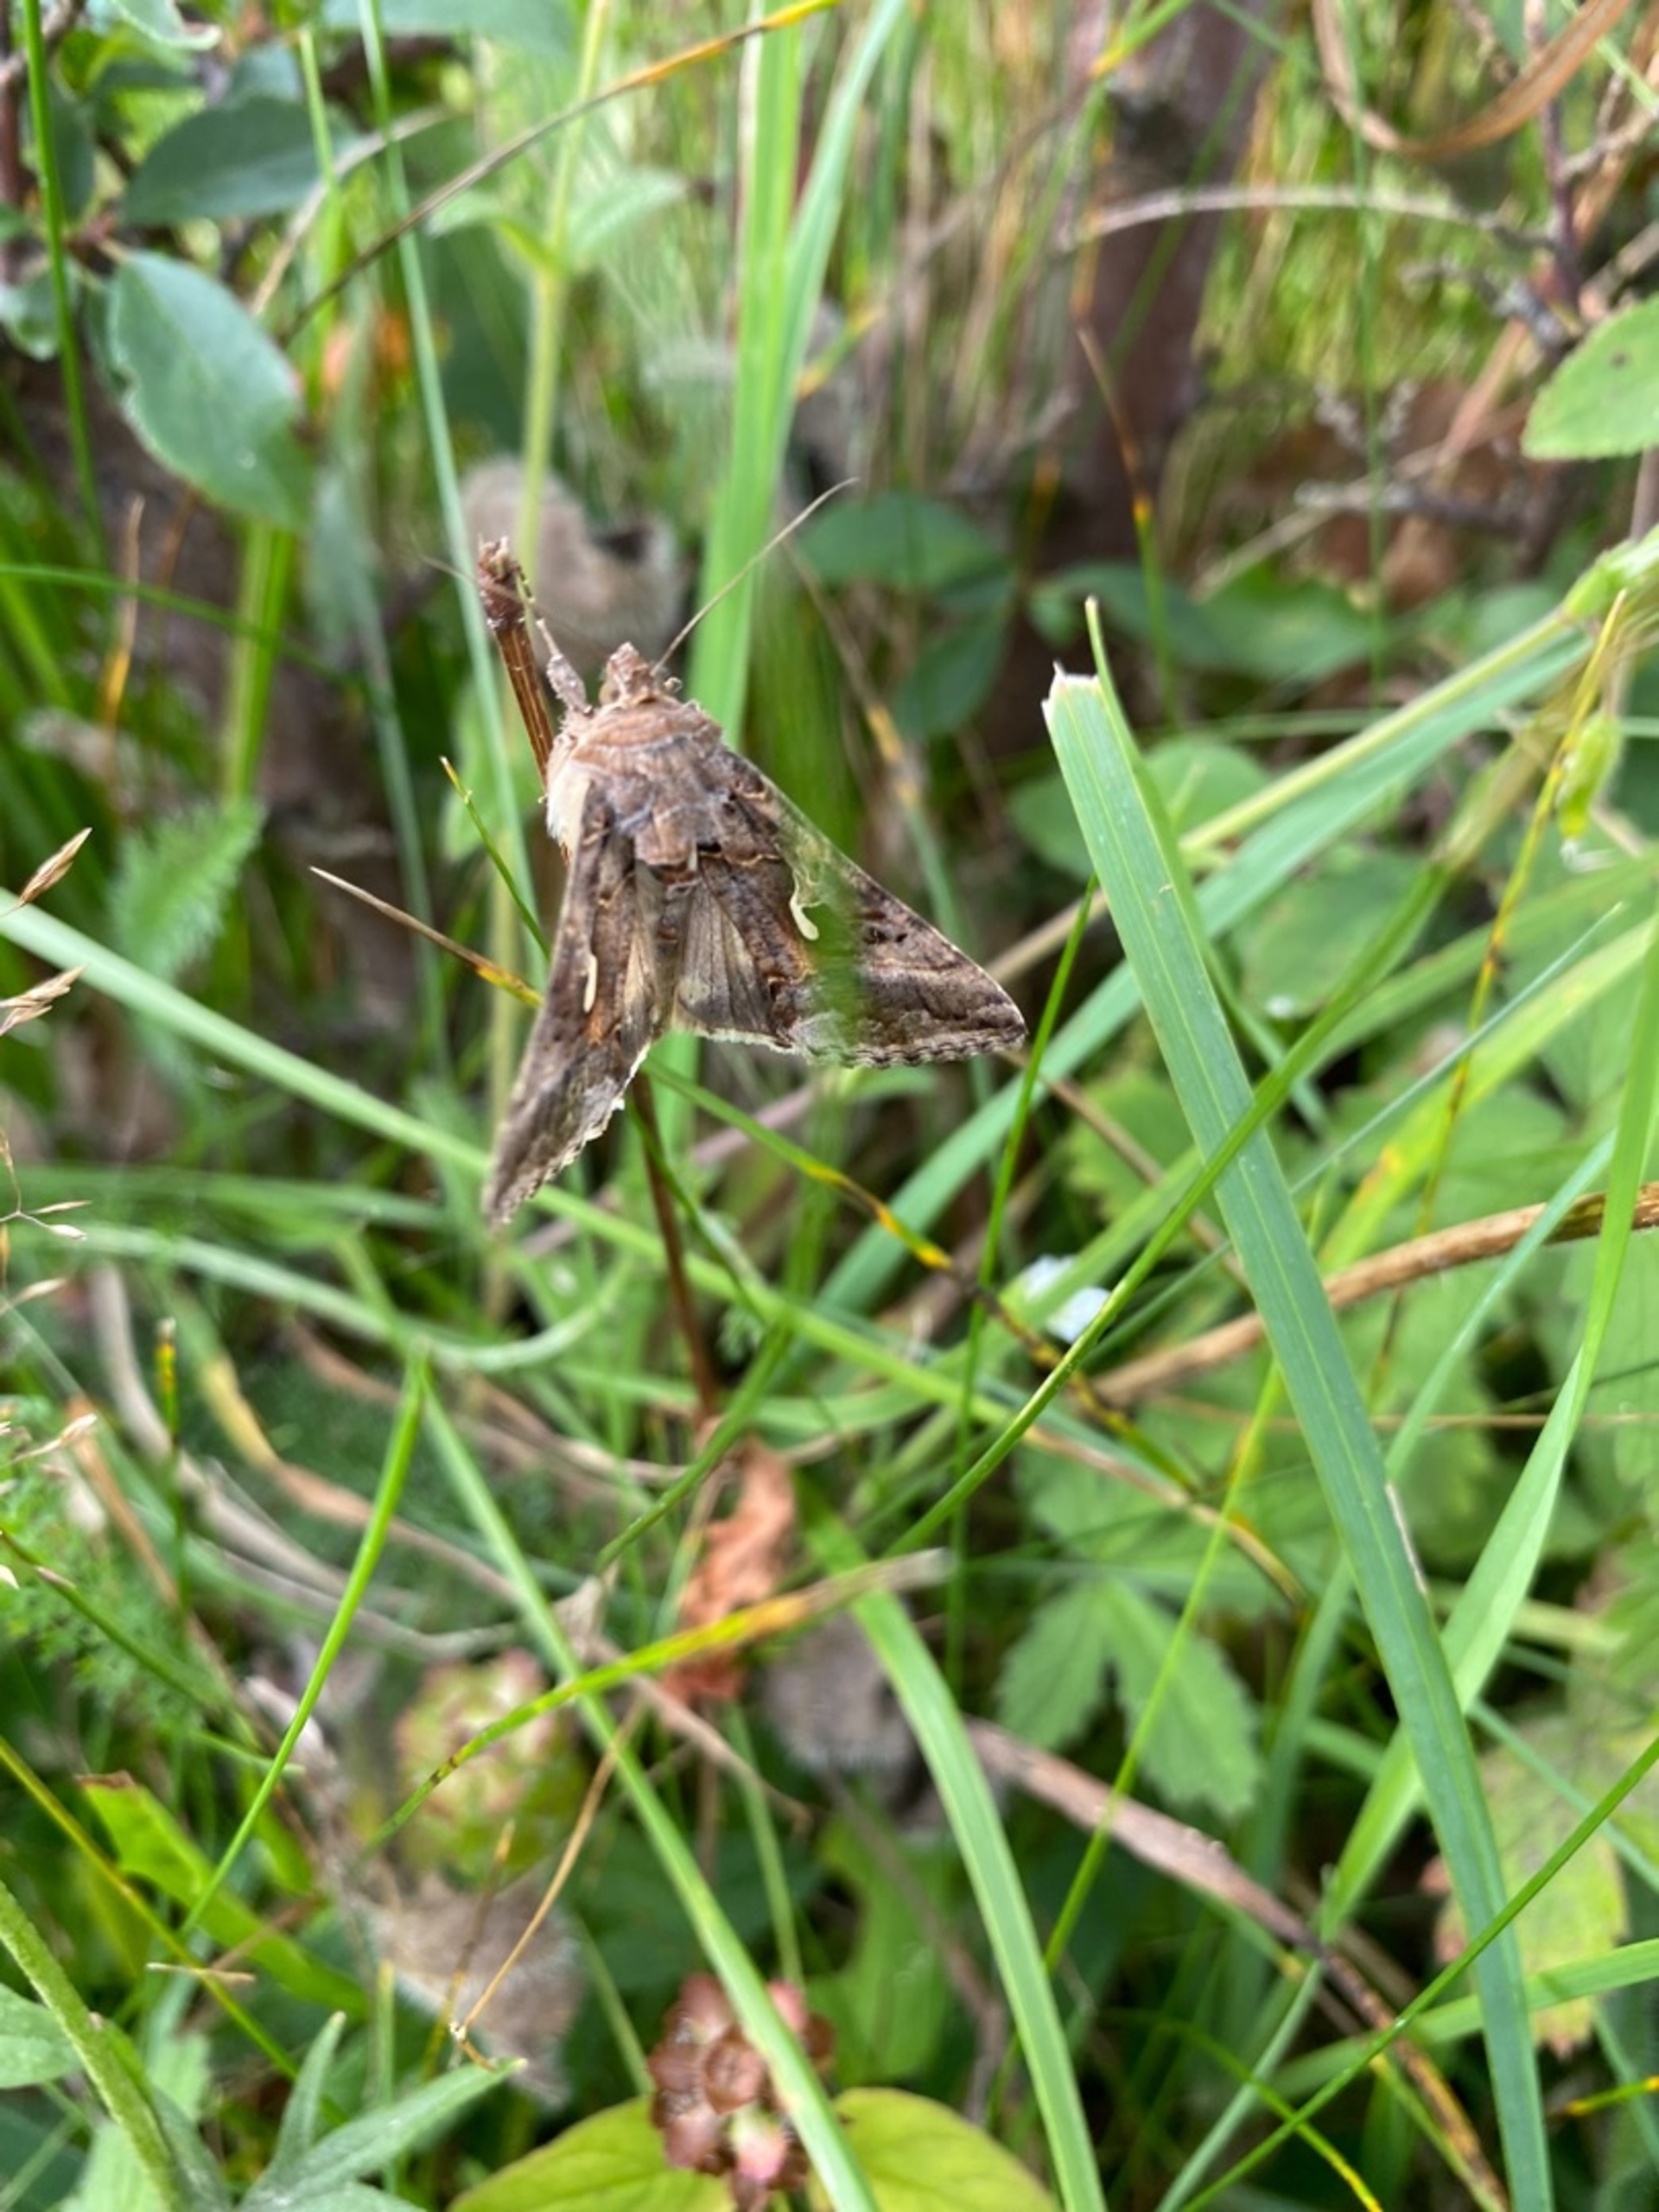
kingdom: Animalia
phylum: Arthropoda
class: Insecta
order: Lepidoptera
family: Noctuidae
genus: Autographa
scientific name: Autographa gamma
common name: Gammaugle
